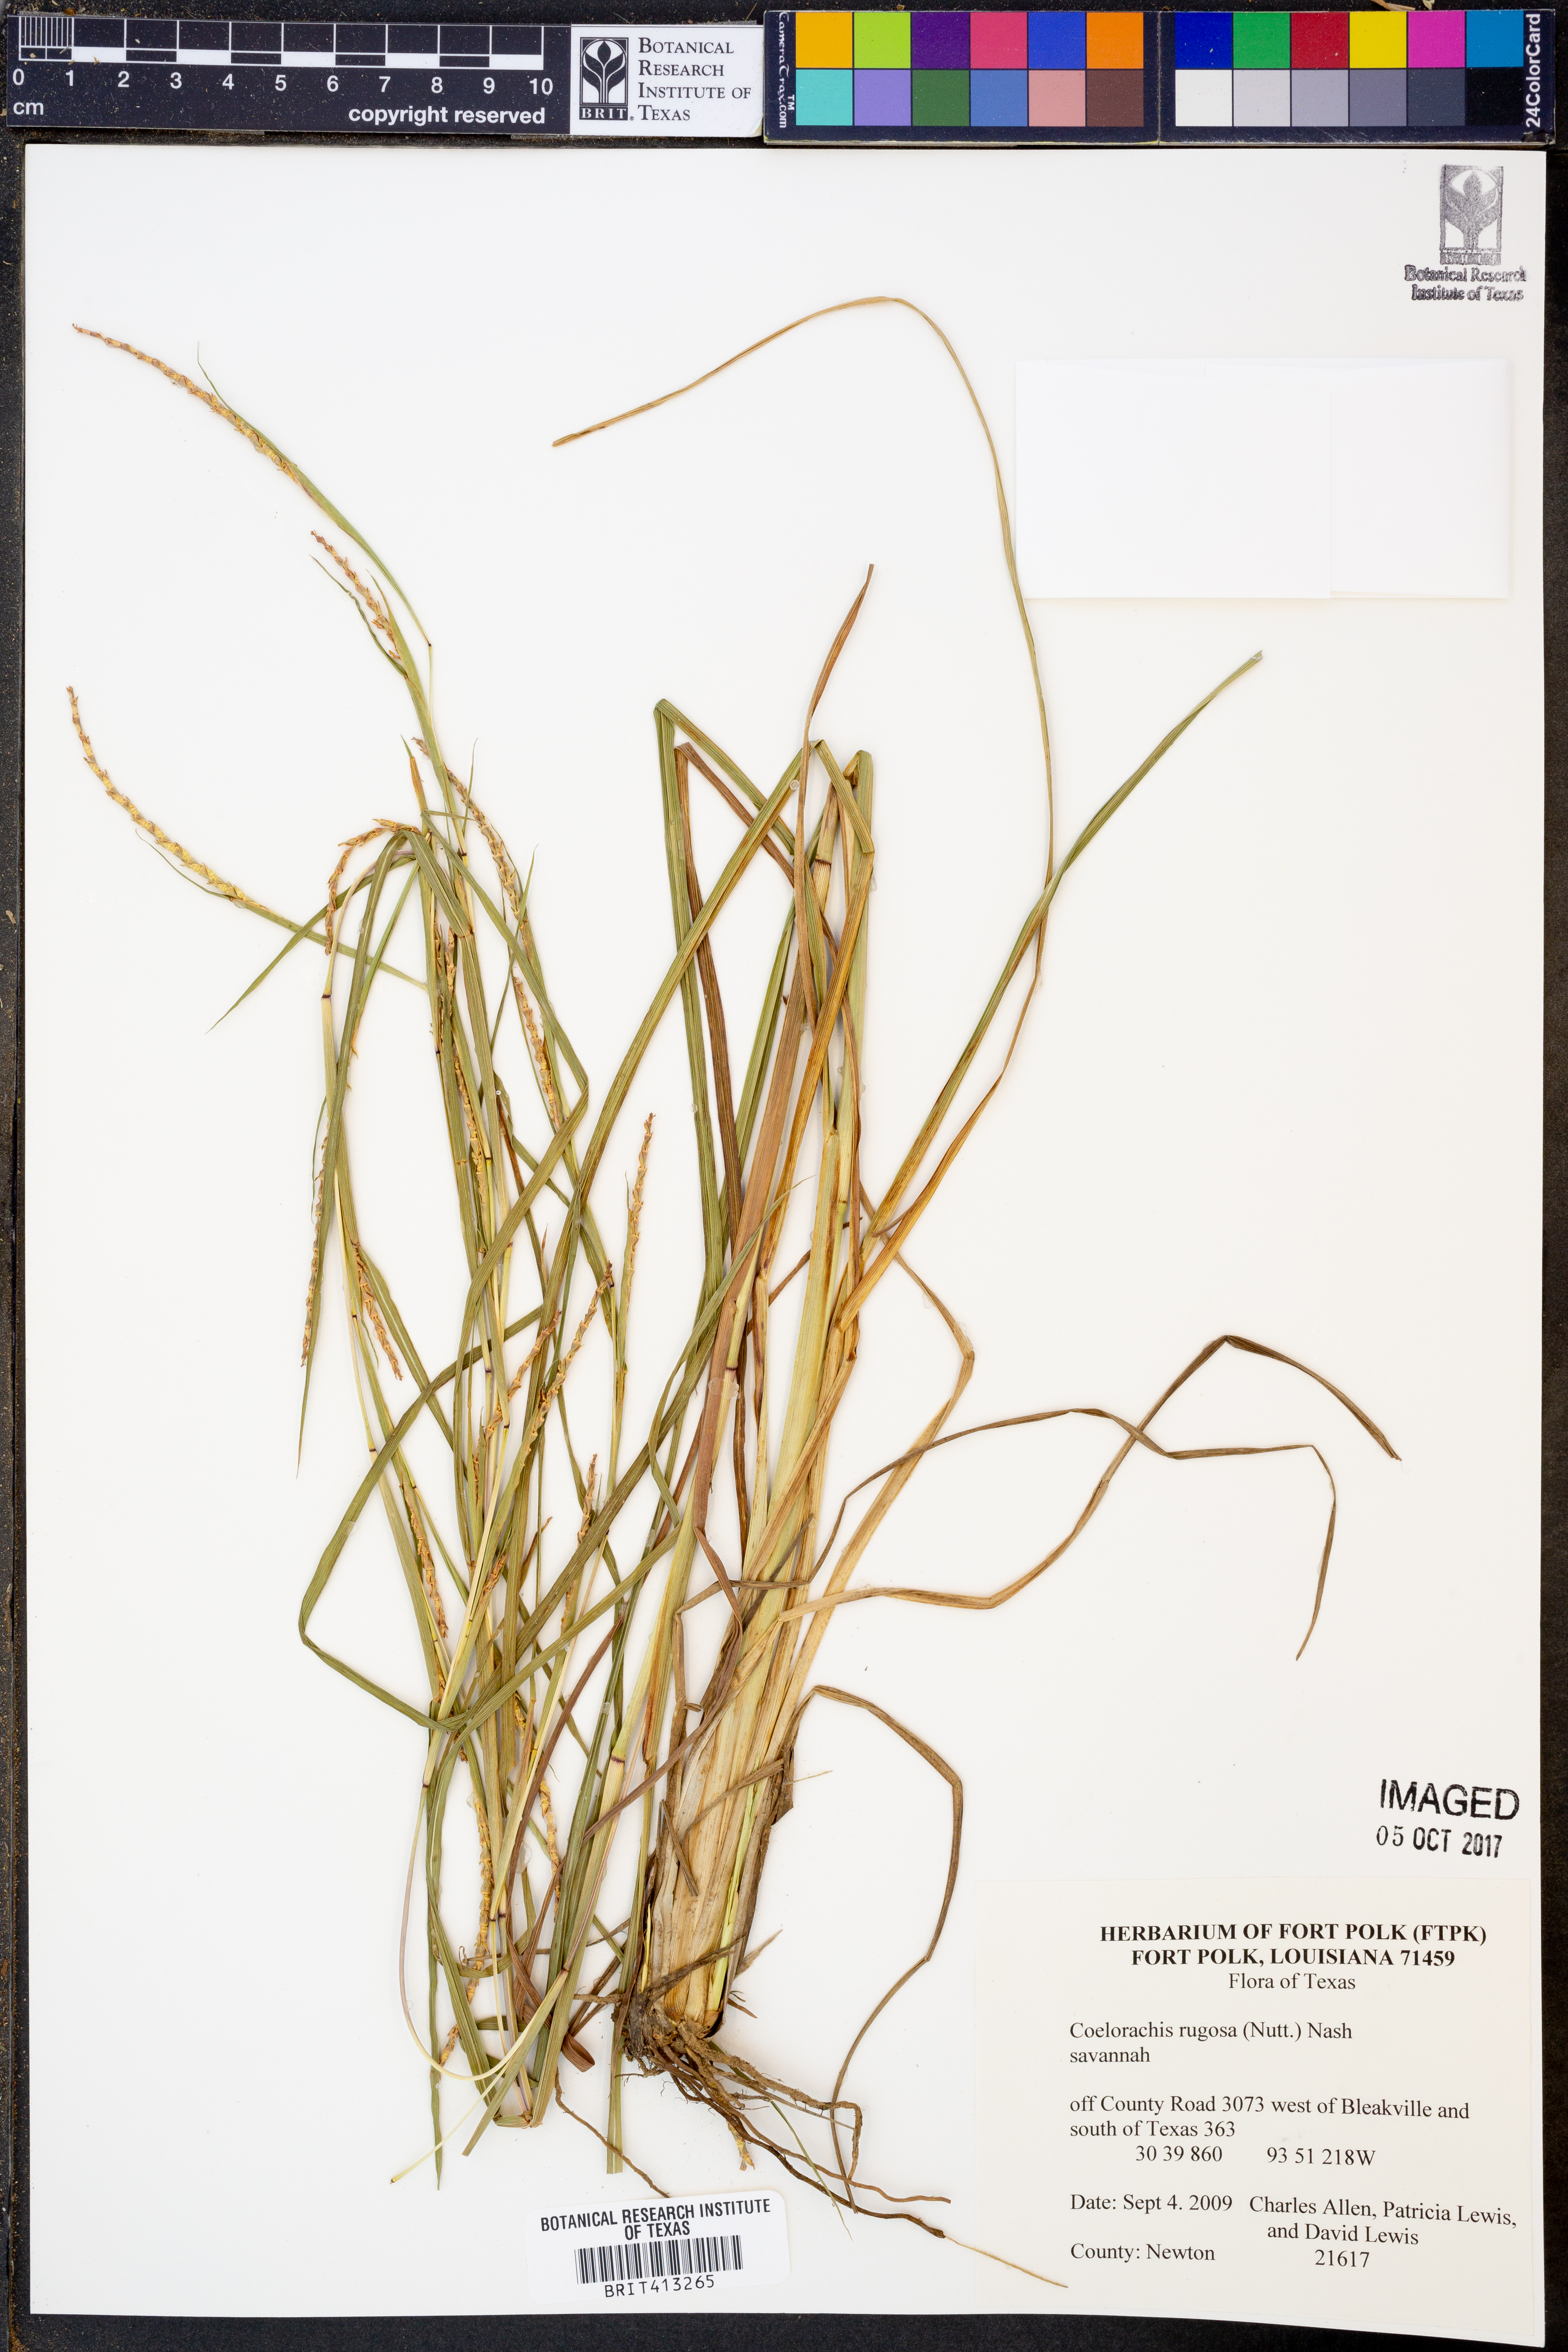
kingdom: Plantae
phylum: Tracheophyta
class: Liliopsida
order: Poales
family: Poaceae
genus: Rottboellia
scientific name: Rottboellia rugosa
